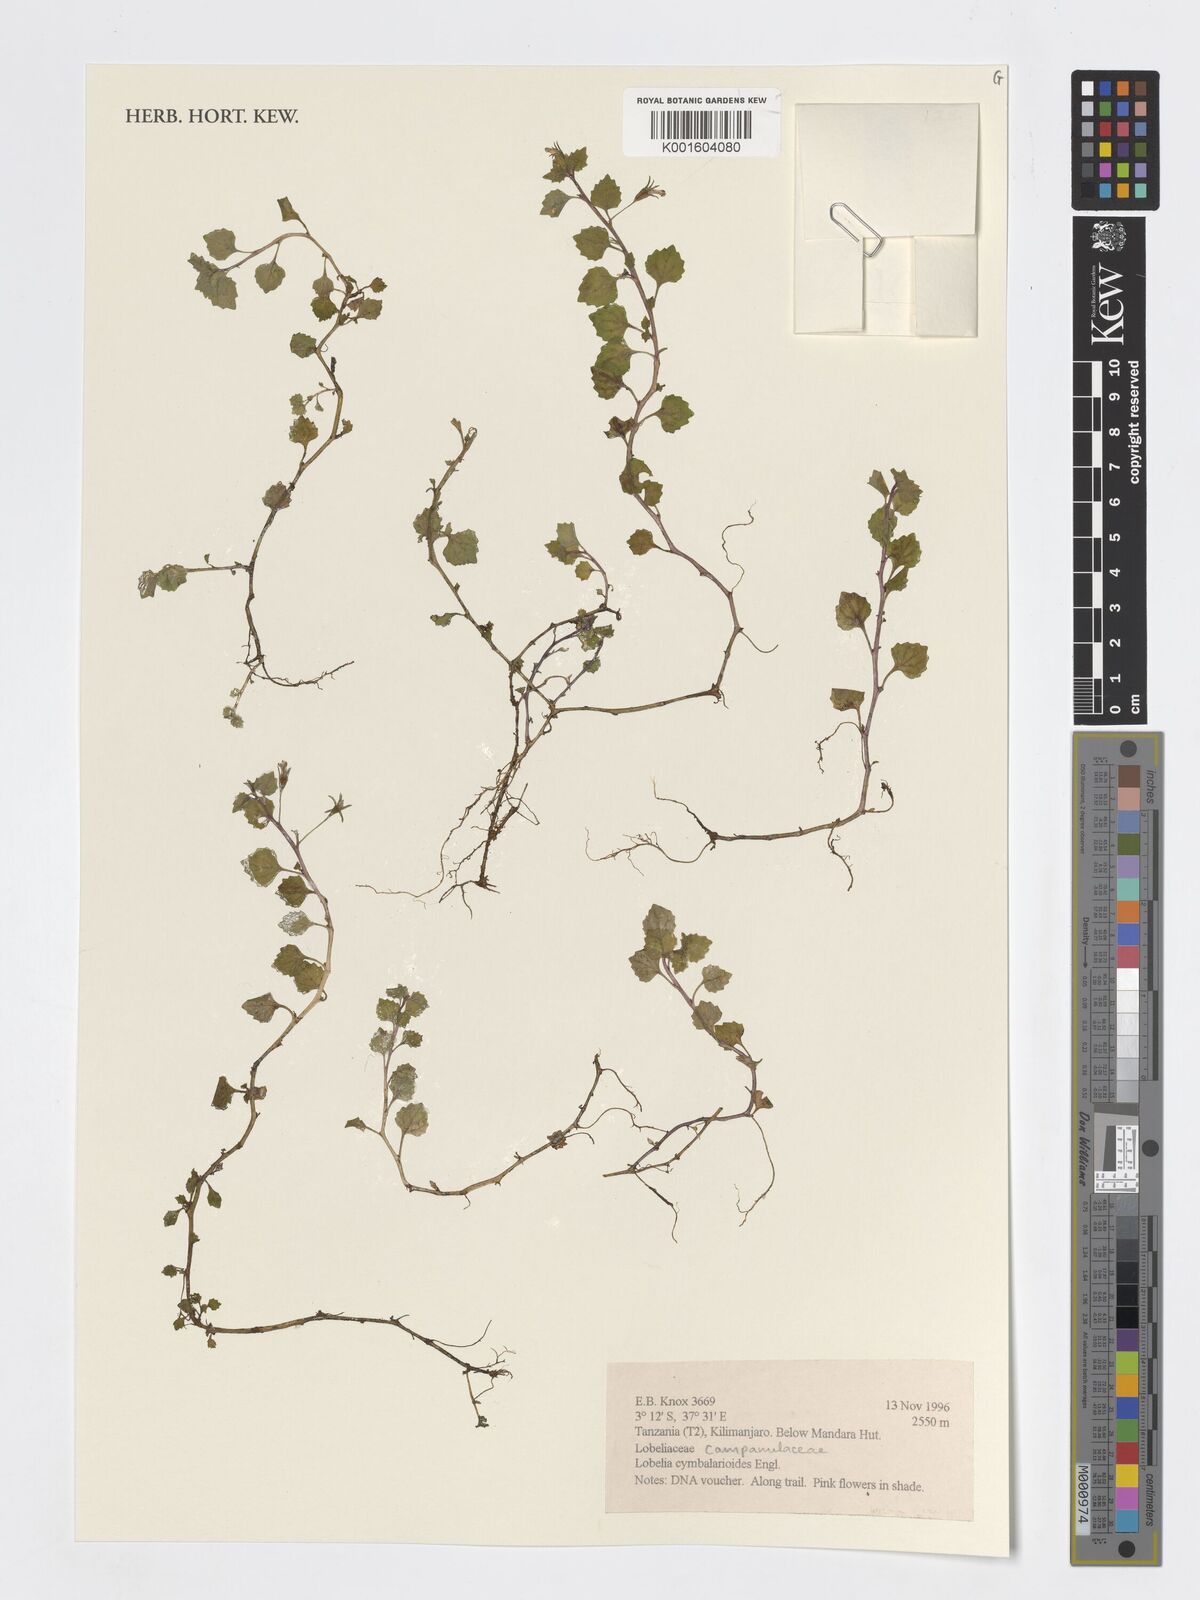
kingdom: Plantae
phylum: Tracheophyta
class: Magnoliopsida
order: Asterales
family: Campanulaceae
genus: Lobelia
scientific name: Lobelia cymbalarioides
